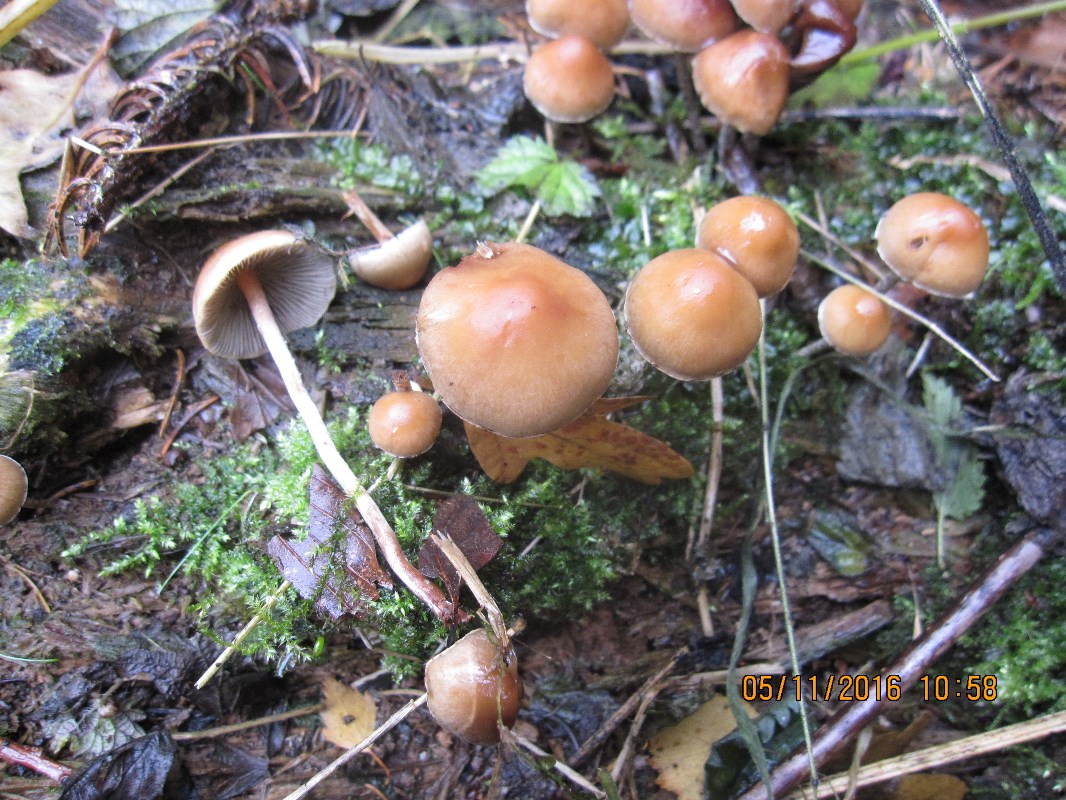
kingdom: Fungi
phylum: Basidiomycota
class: Agaricomycetes
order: Agaricales
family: Strophariaceae
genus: Hypholoma
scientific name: Hypholoma marginatum
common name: enlig svovlhat
